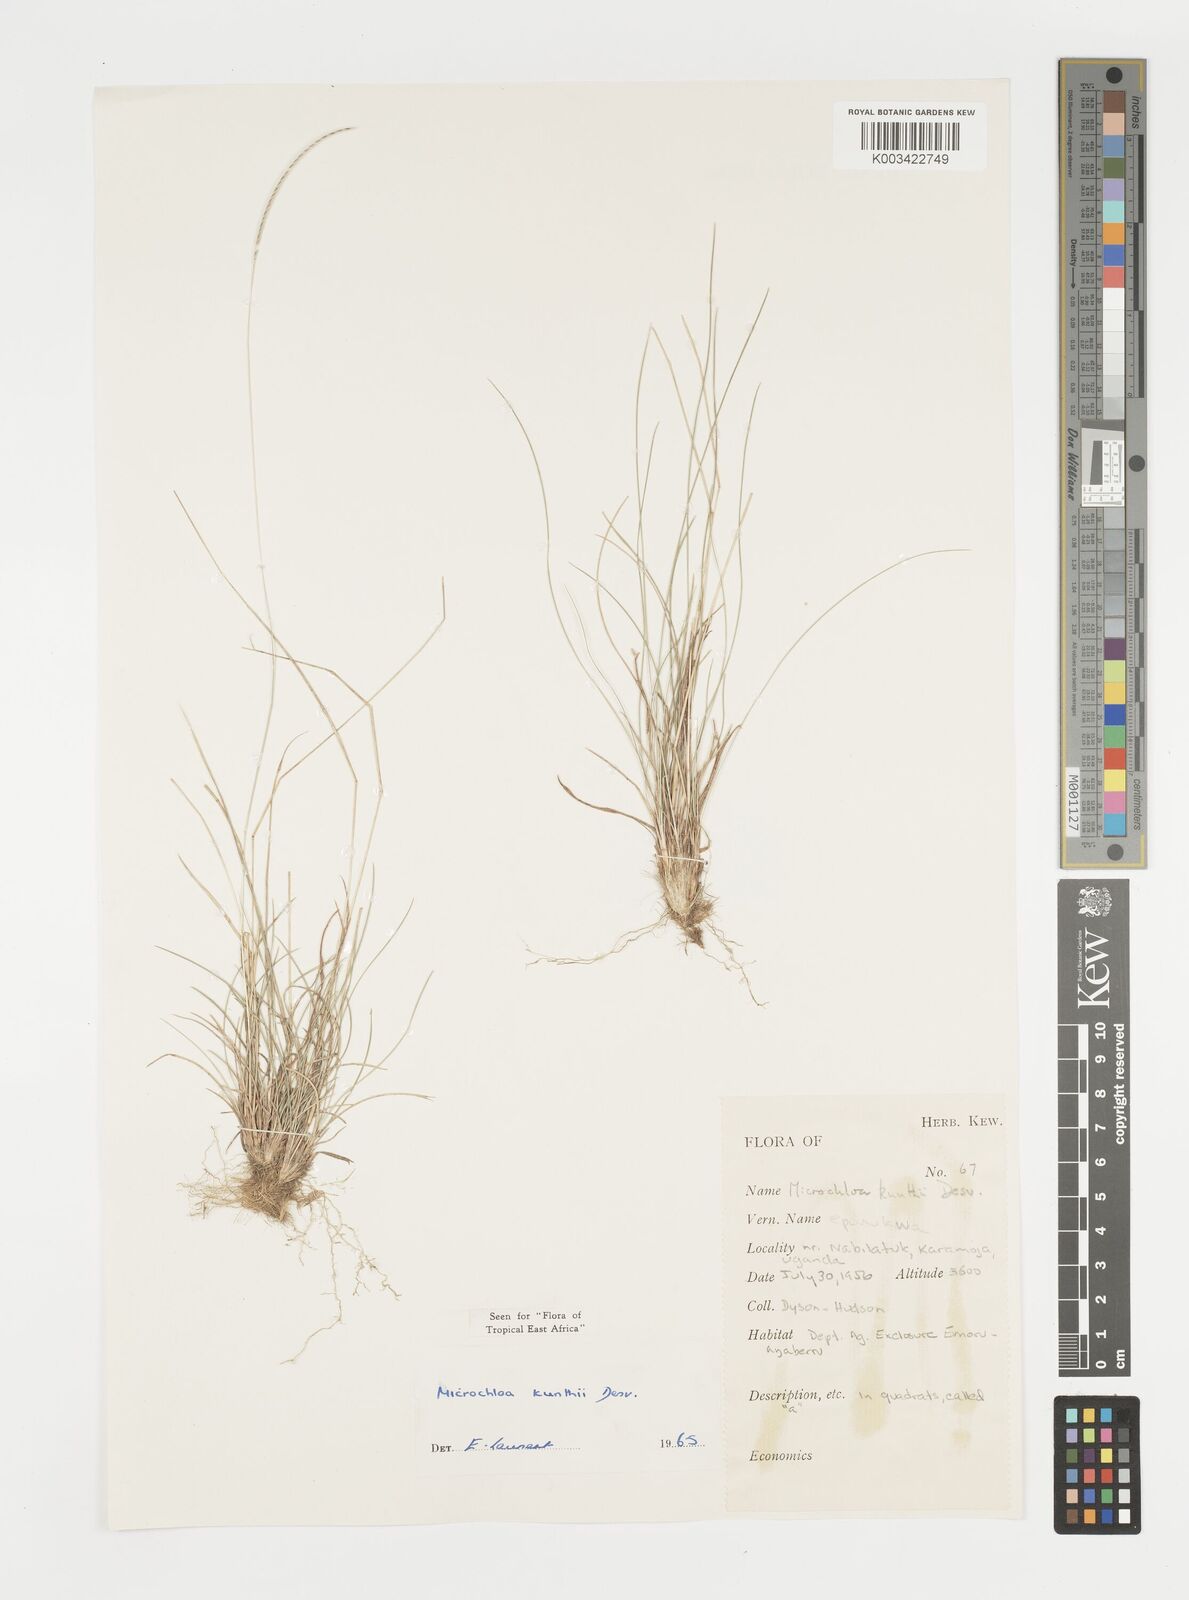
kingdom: Plantae
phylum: Tracheophyta
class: Liliopsida
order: Poales
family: Poaceae
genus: Microchloa
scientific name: Microchloa kunthii
